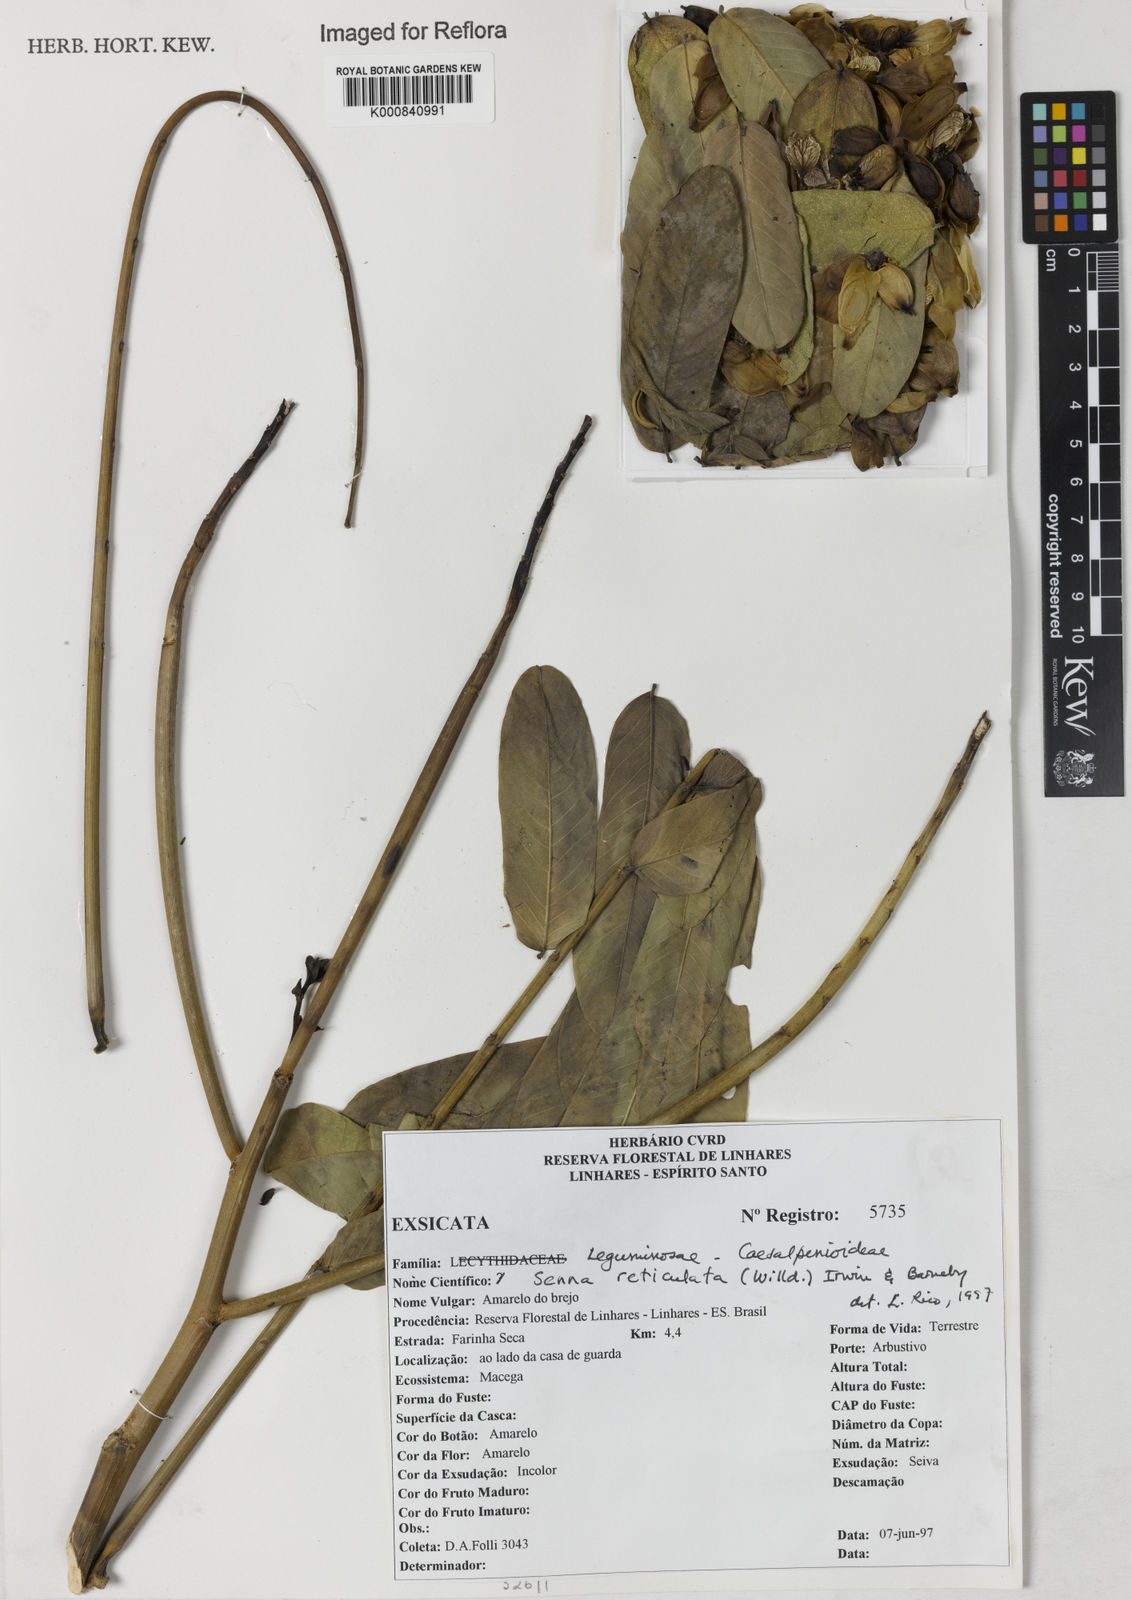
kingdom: Plantae
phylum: Tracheophyta
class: Magnoliopsida
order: Fabales
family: Fabaceae
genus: Senna
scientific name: Senna reticulata
